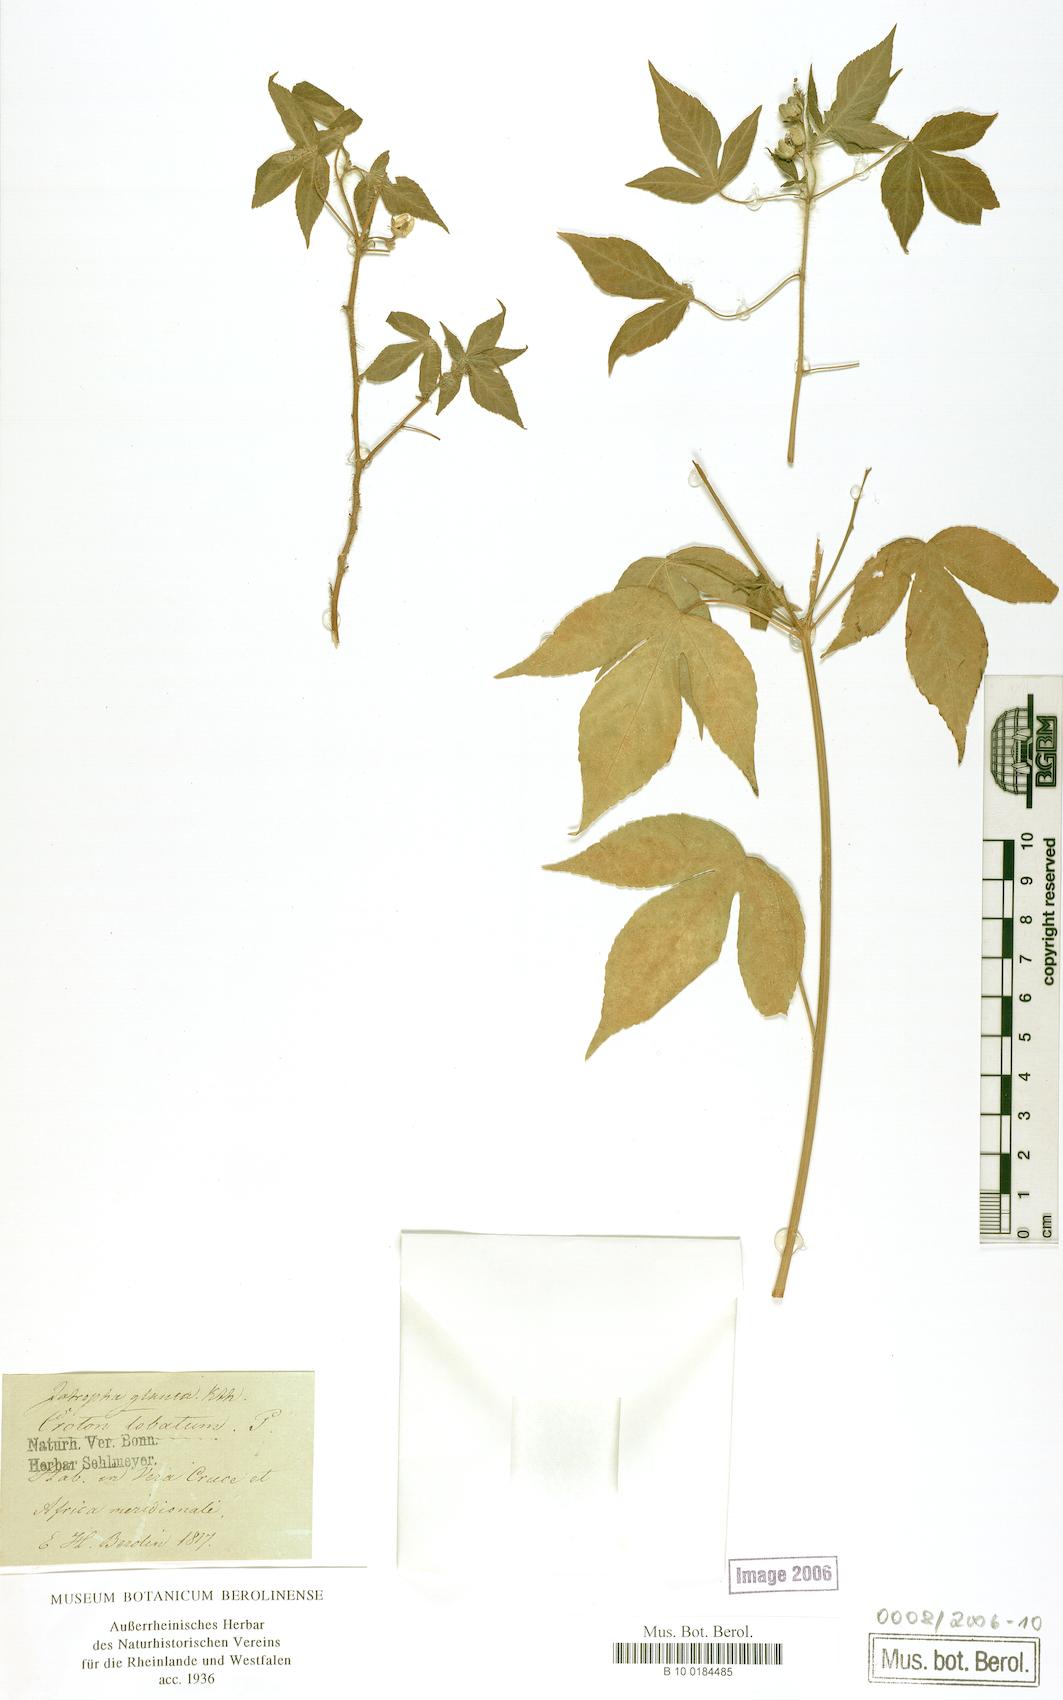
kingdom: Plantae
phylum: Tracheophyta
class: Magnoliopsida
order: Malpighiales
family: Euphorbiaceae
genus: Croton
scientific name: Croton lobatus
